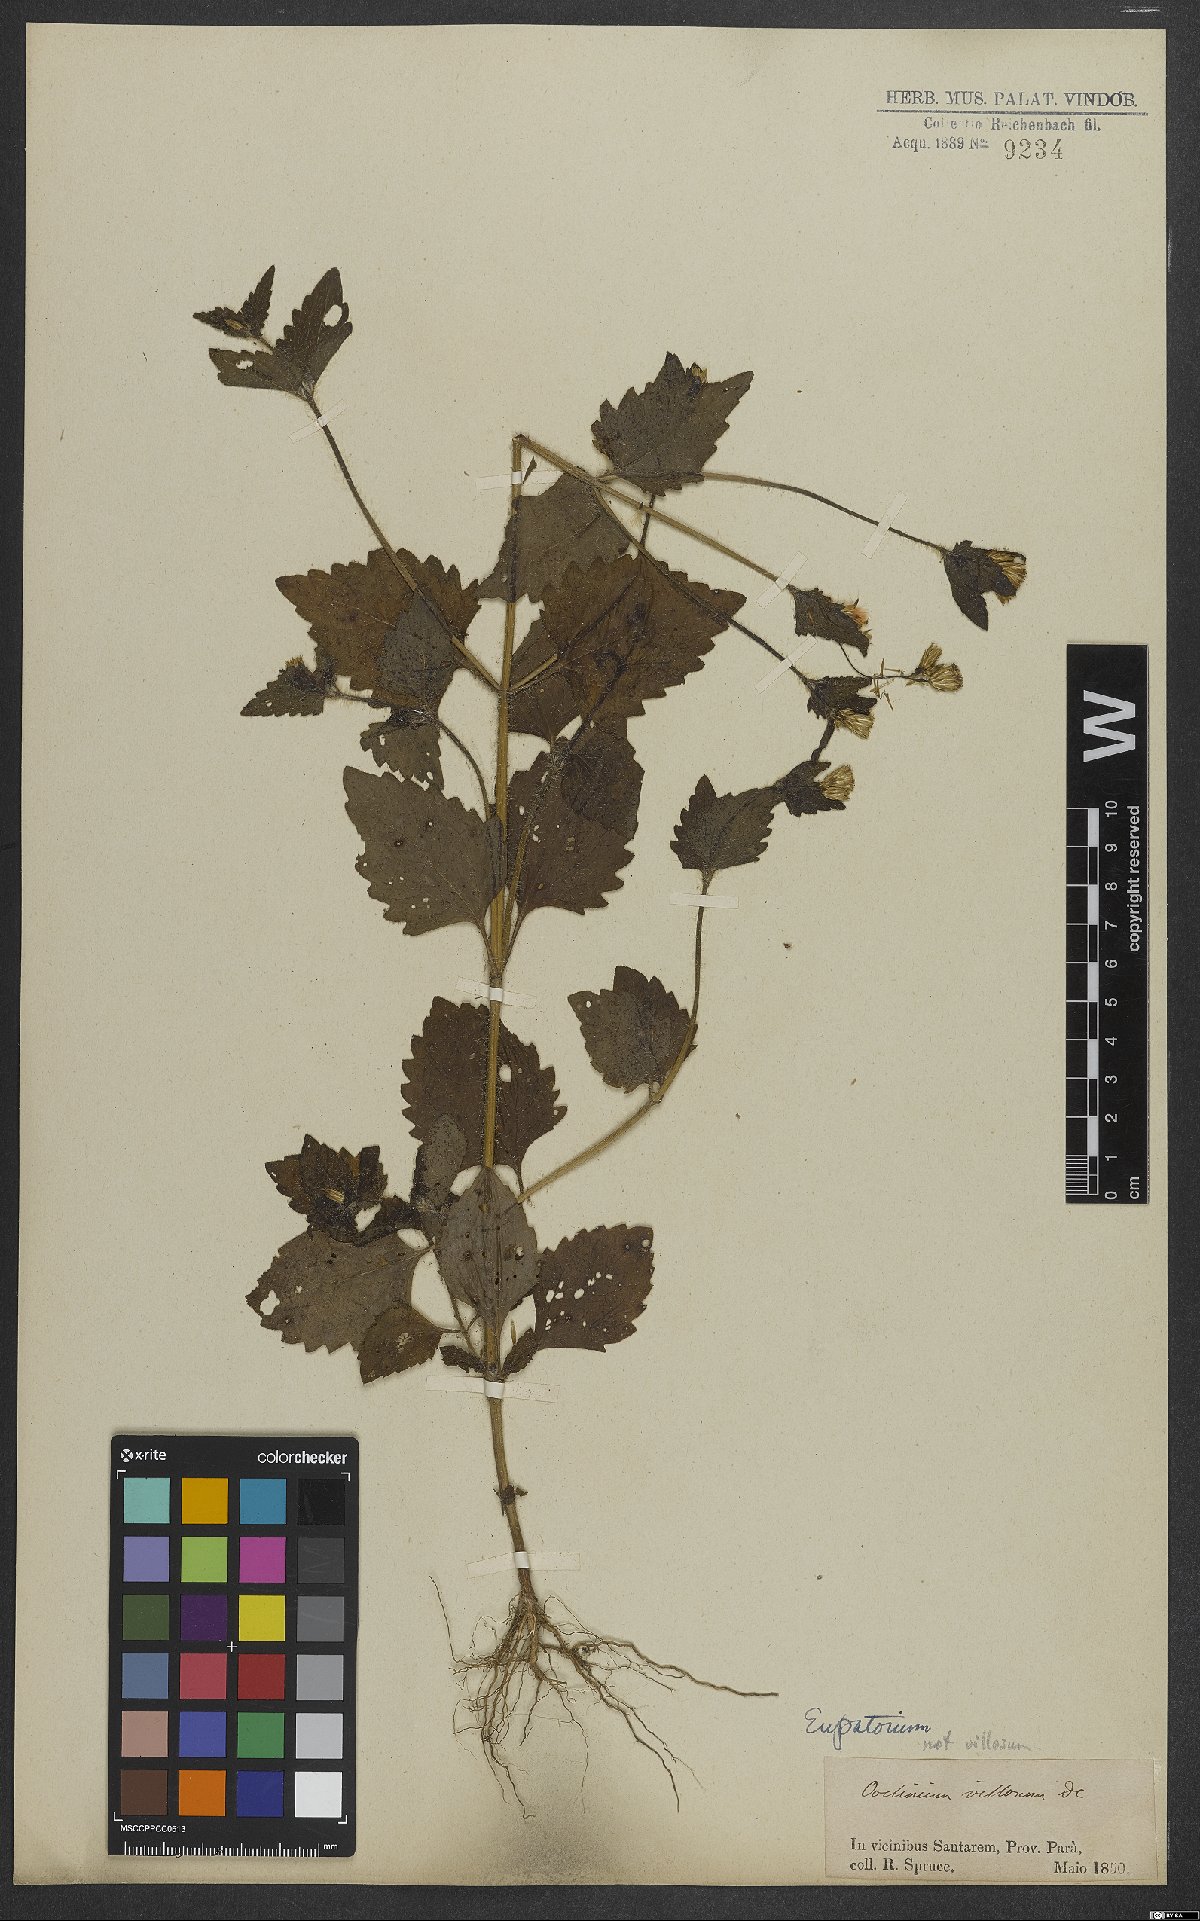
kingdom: Plantae
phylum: Tracheophyta
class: Magnoliopsida
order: Asterales
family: Asteraceae
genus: Eupatorium
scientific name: Eupatorium
